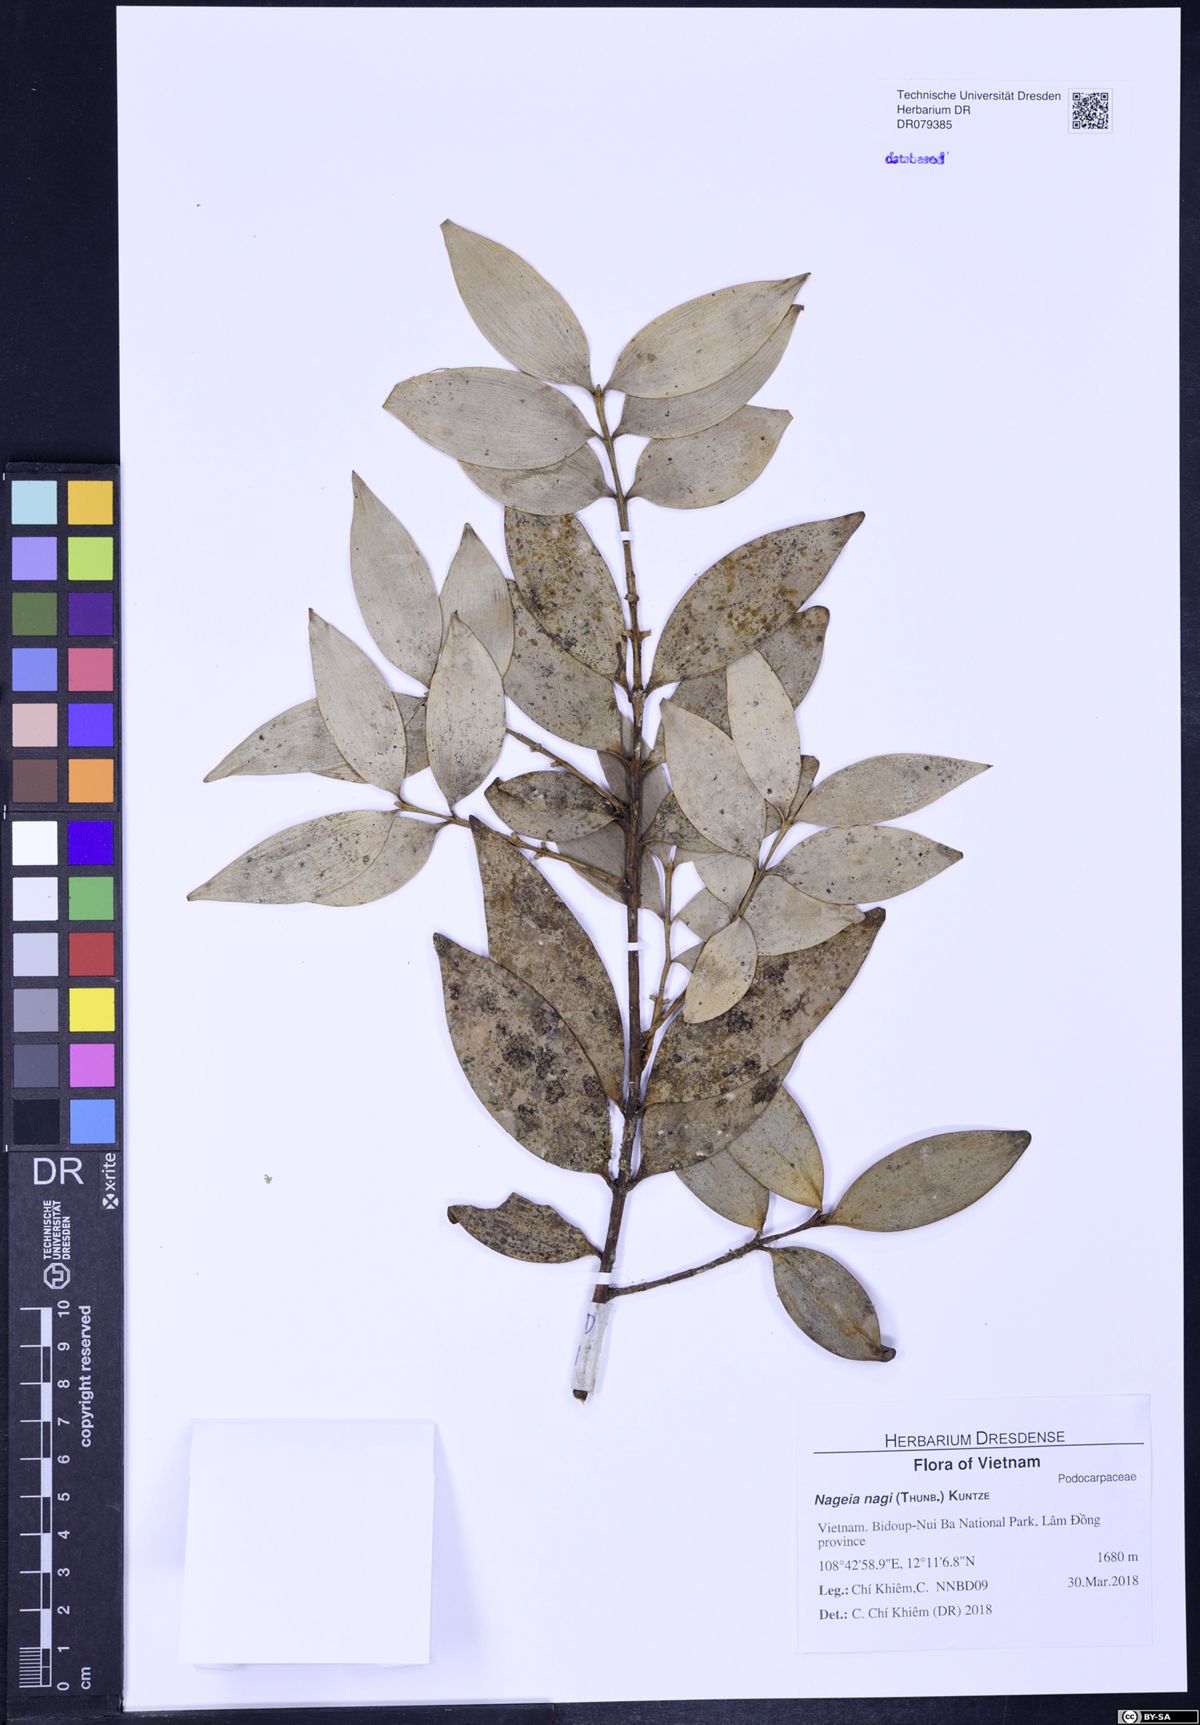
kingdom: Plantae
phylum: Tracheophyta
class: Pinopsida
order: Pinales
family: Podocarpaceae
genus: Nageia
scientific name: Nageia nagi
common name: Kaphal
